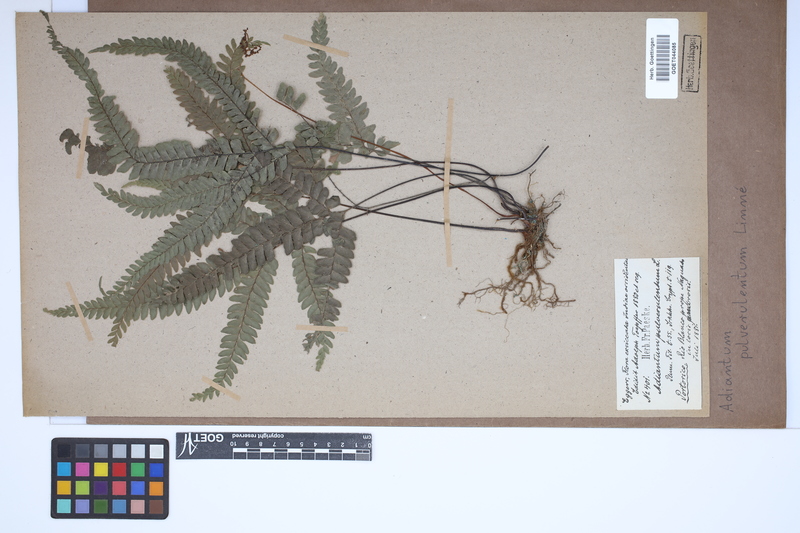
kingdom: Plantae
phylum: Tracheophyta
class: Polypodiopsida
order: Polypodiales
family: Pteridaceae
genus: Adiantum
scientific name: Adiantum pulverulentum
